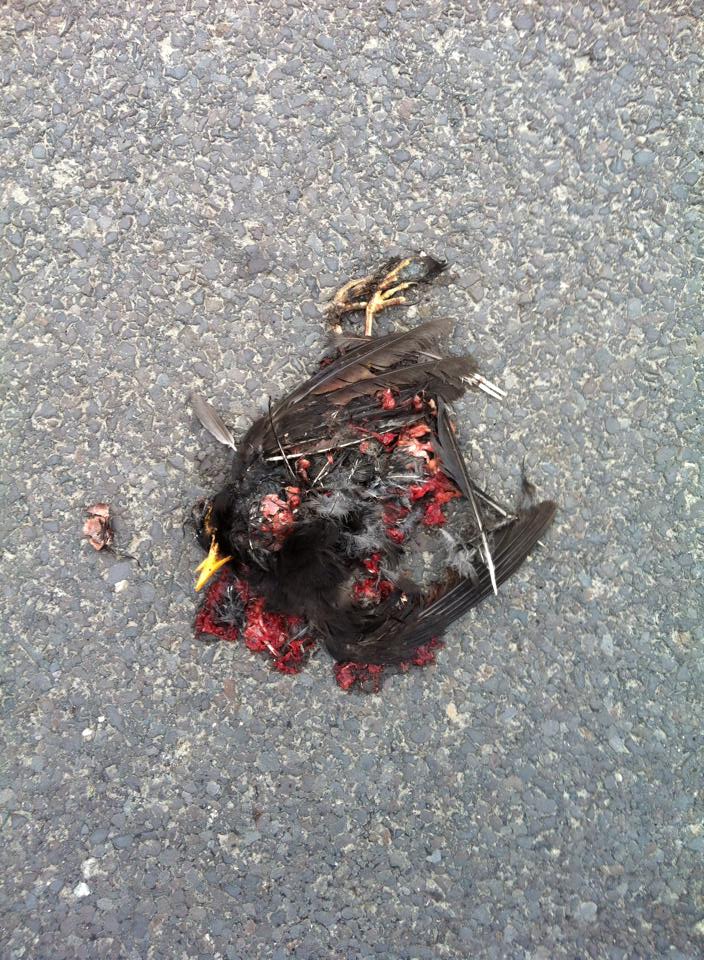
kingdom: Animalia
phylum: Chordata
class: Aves
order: Passeriformes
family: Turdidae
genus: Turdus
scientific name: Turdus merula
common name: Common blackbird
